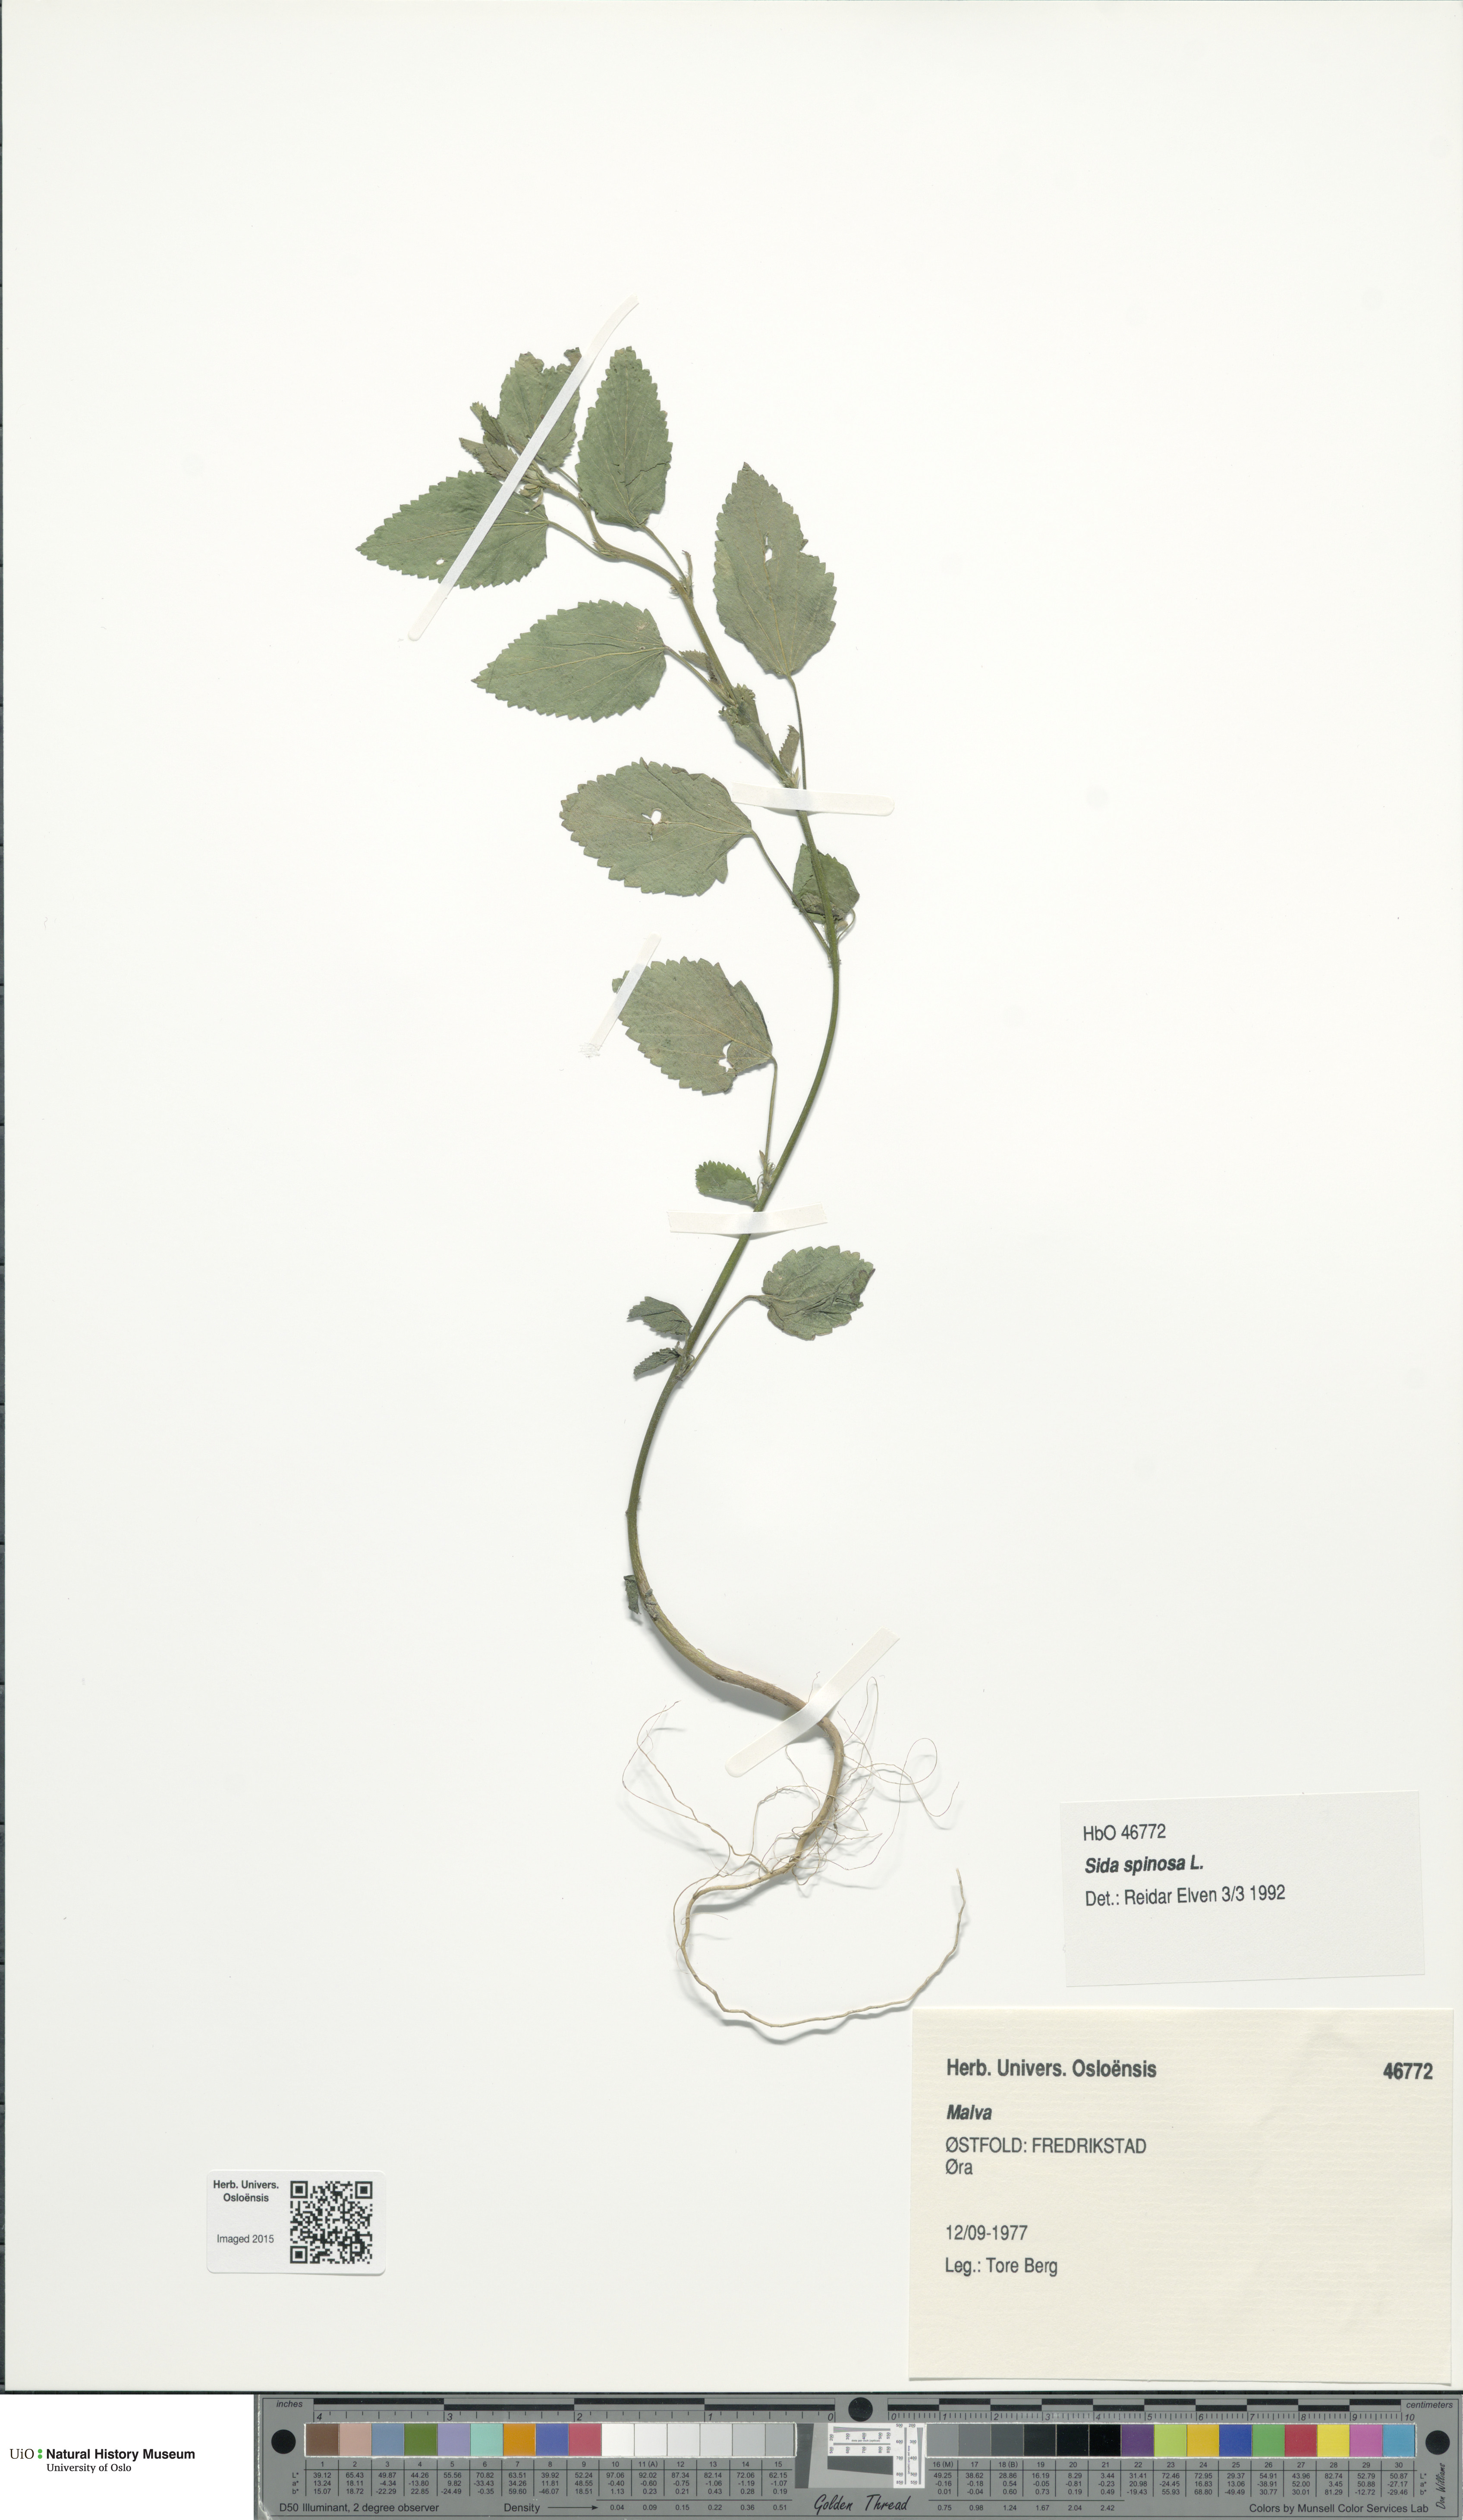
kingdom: Plantae
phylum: Tracheophyta
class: Magnoliopsida
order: Malvales
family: Malvaceae
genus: Sida
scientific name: Sida spinosa
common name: Prickly fanpetals
